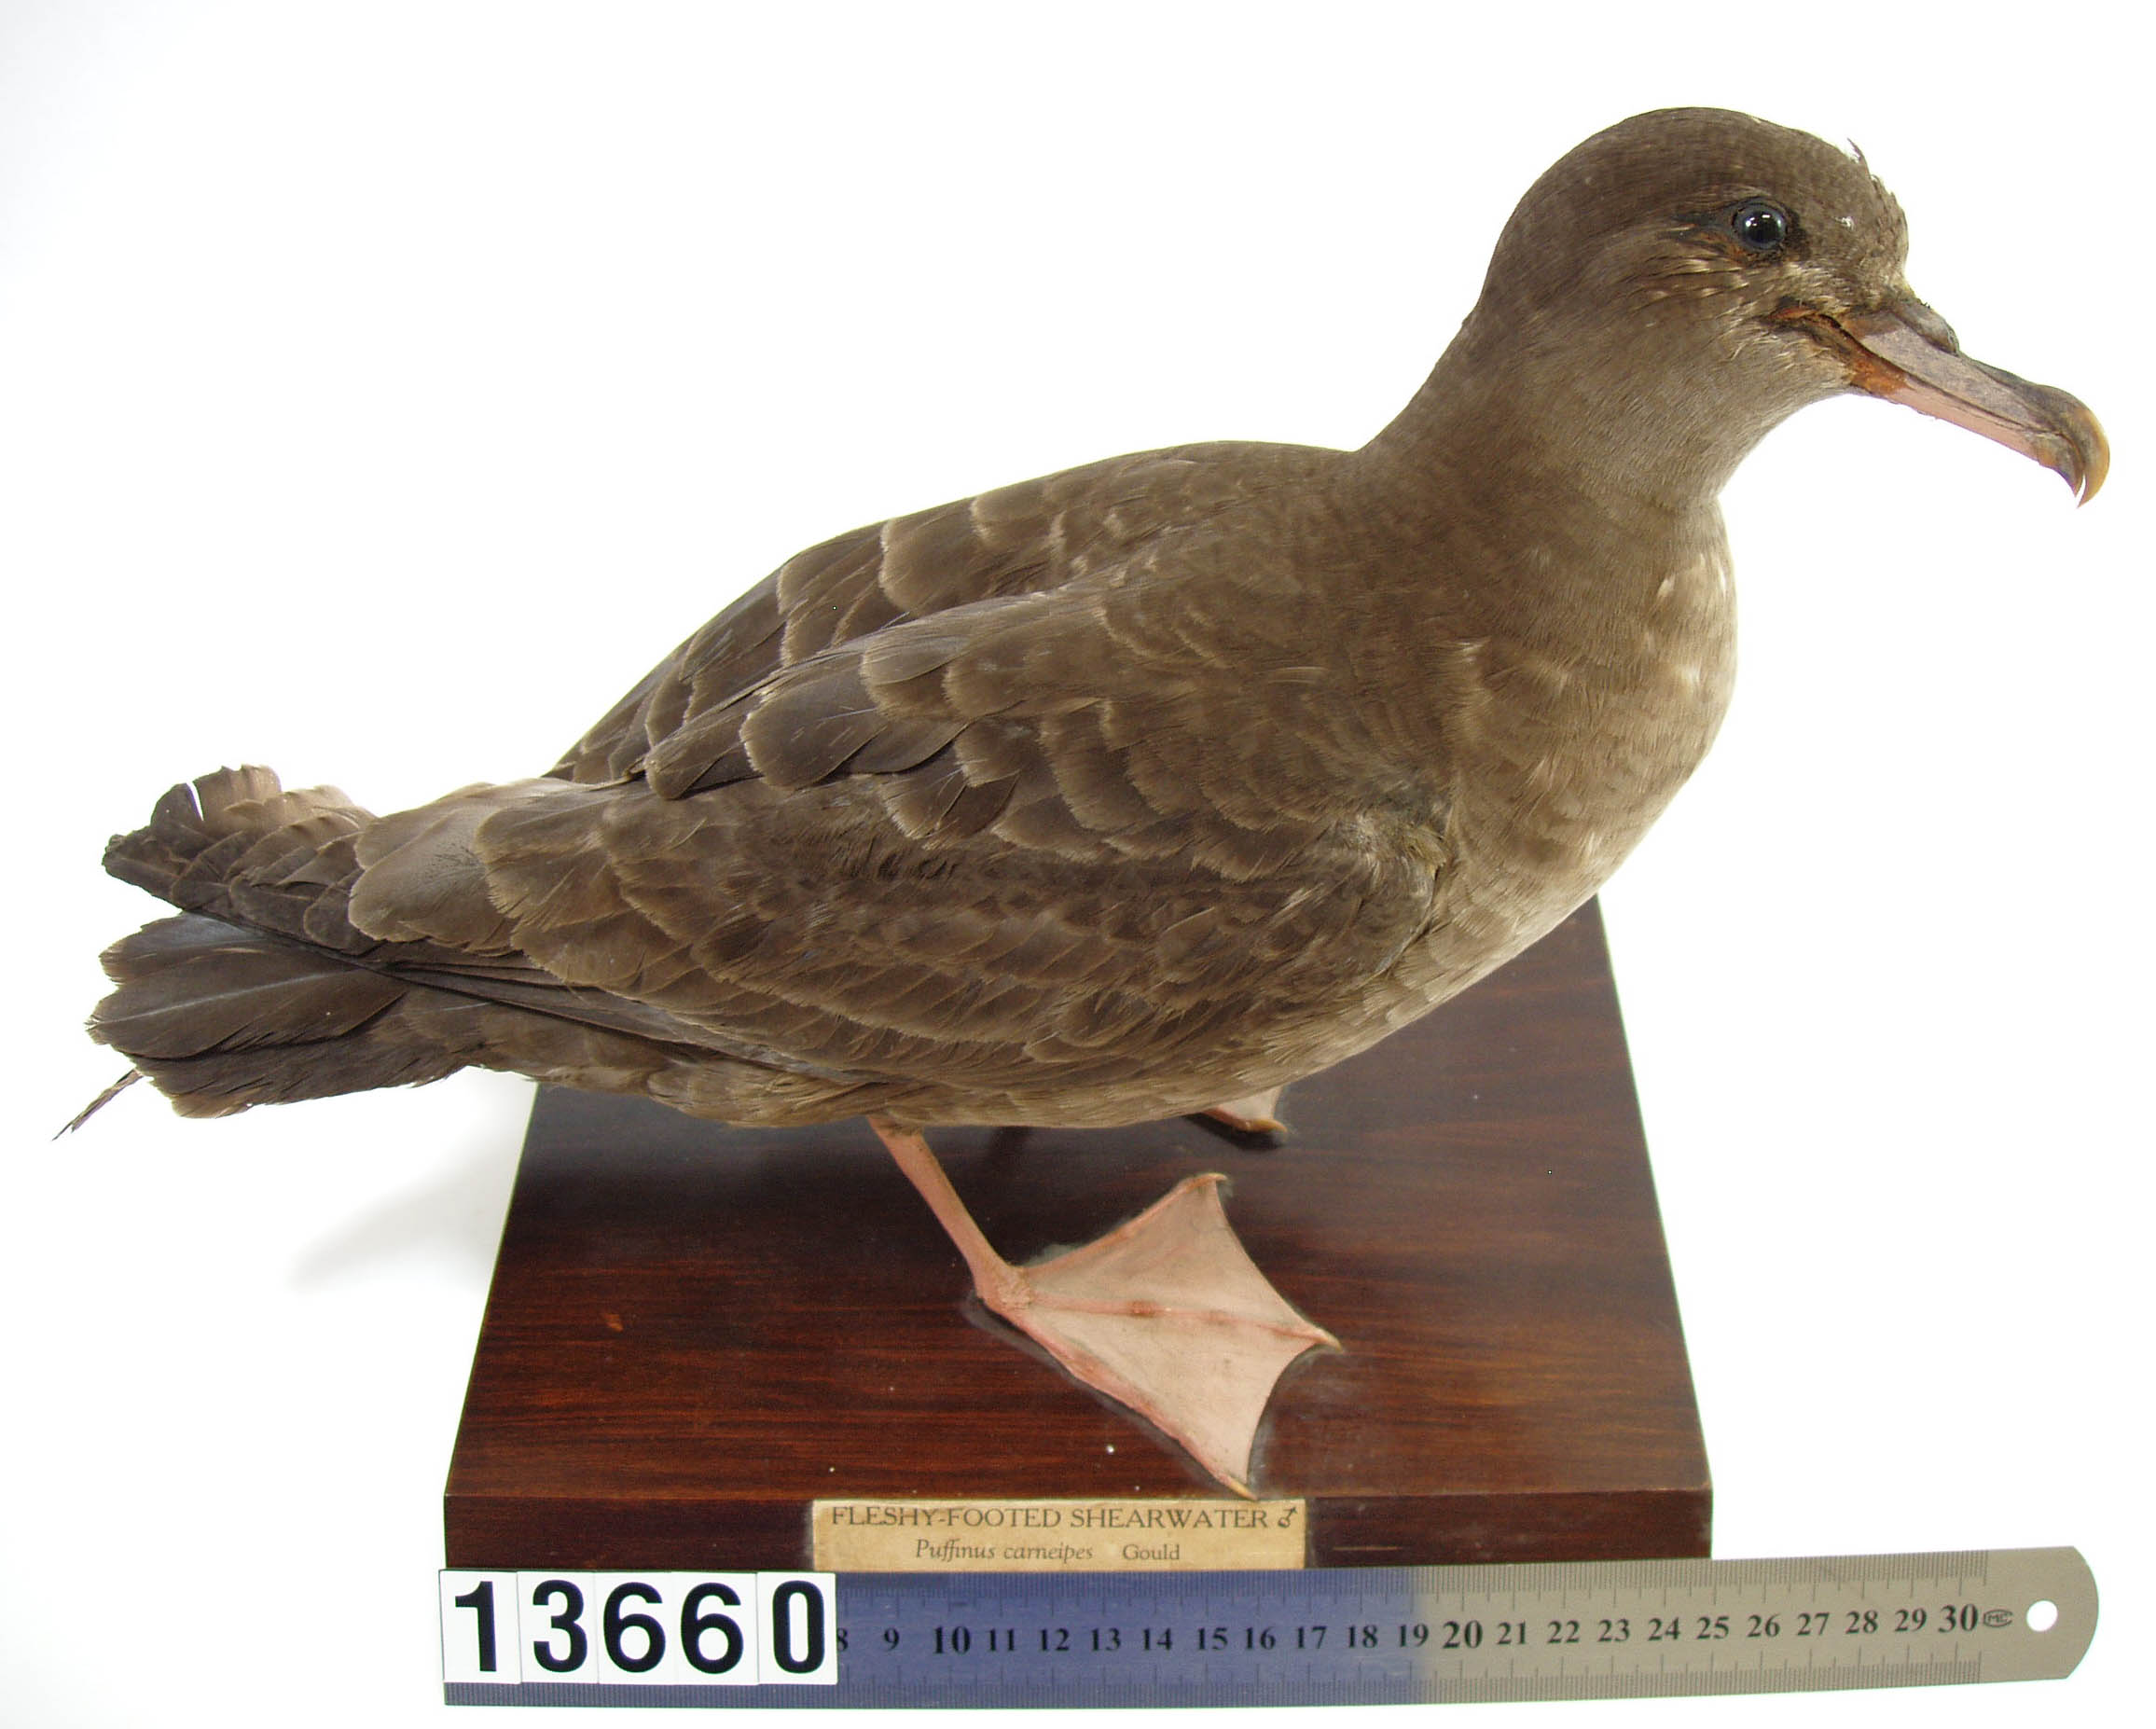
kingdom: Animalia
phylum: Chordata
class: Aves
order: Procellariiformes
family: Procellariidae
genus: Puffinus
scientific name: Puffinus carneipes
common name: Flesh-footed shearwater
